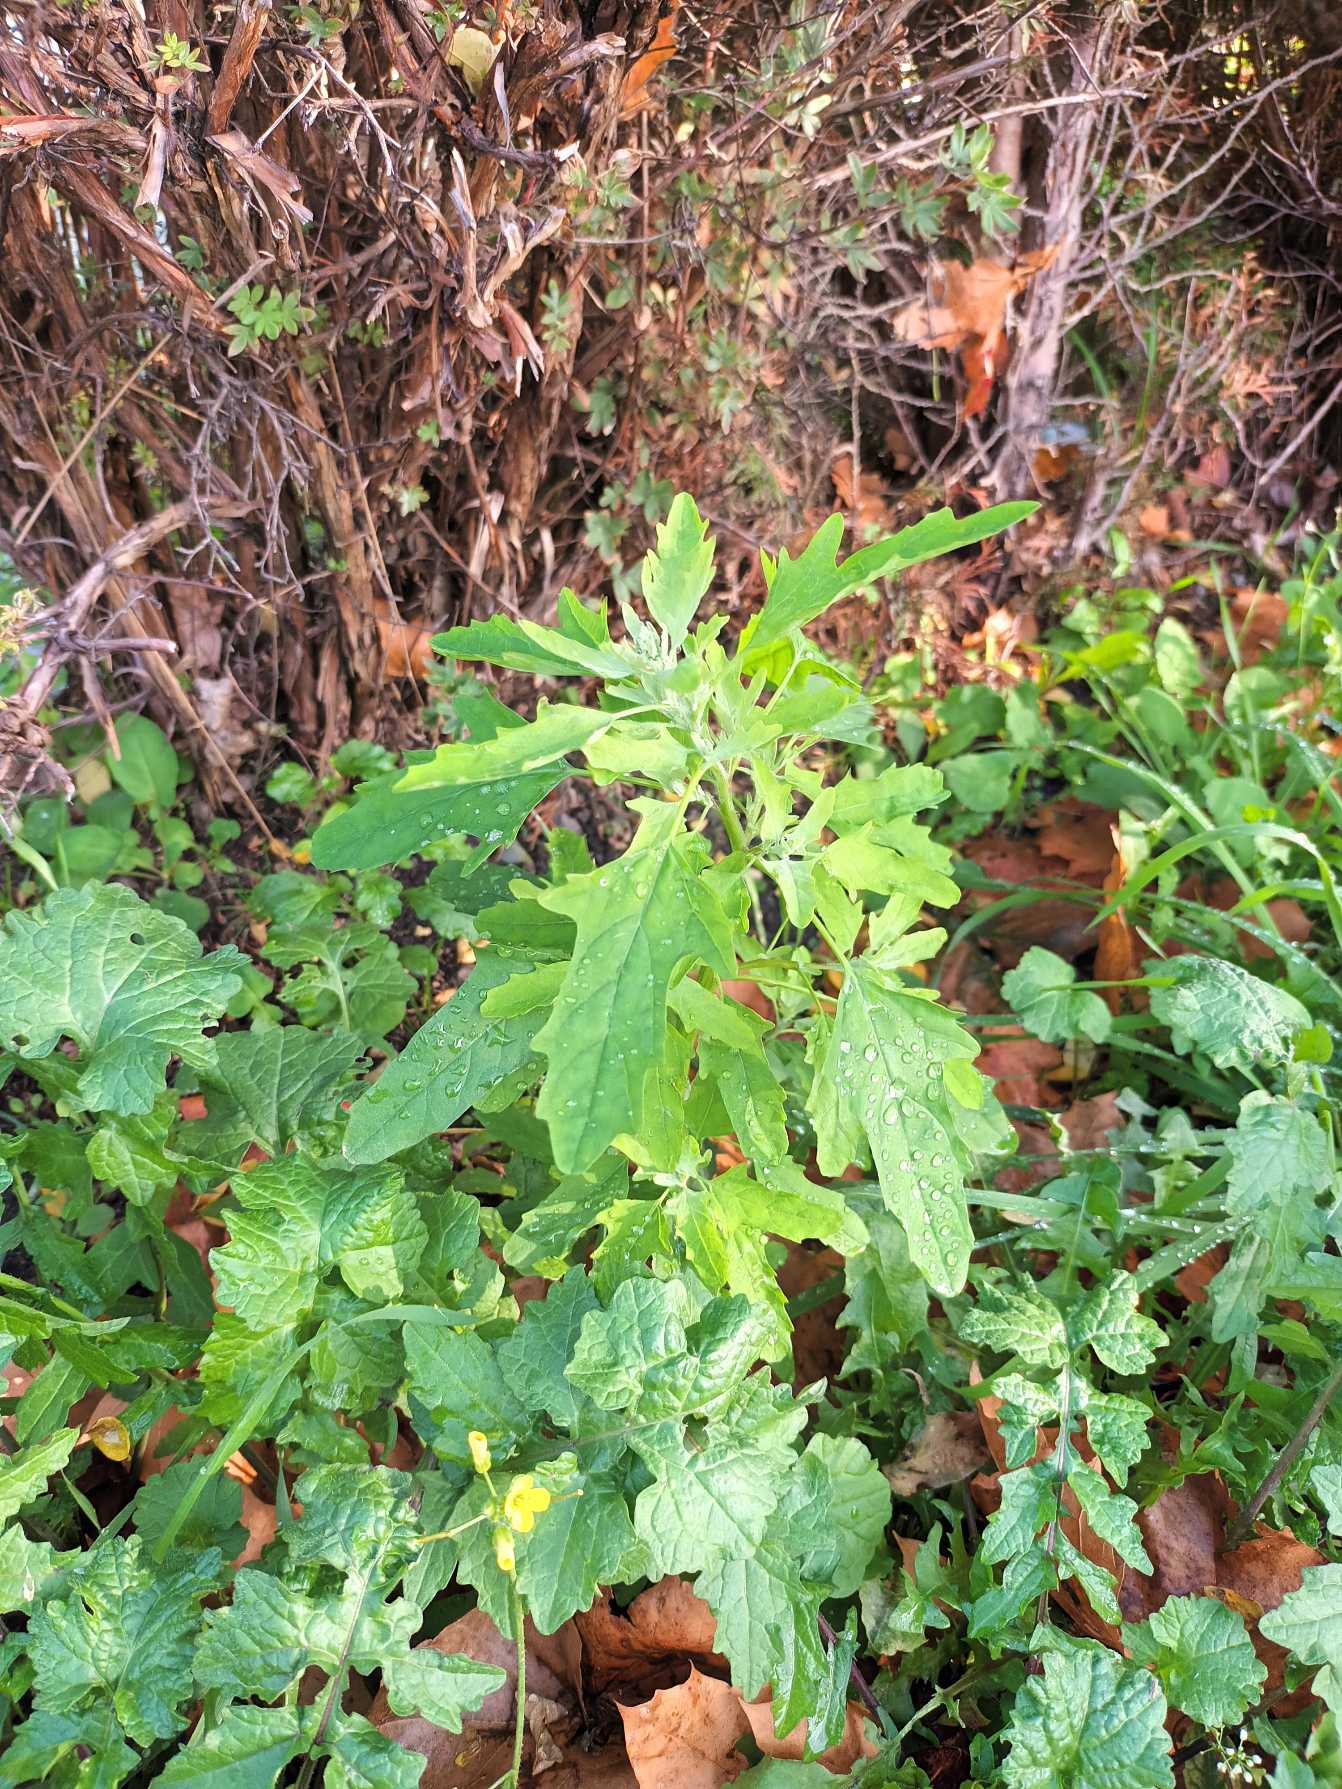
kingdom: Plantae
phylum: Tracheophyta
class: Magnoliopsida
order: Caryophyllales
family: Amaranthaceae
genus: Chenopodium
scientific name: Chenopodium ficifolium
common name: Figenbladet gåsefod
